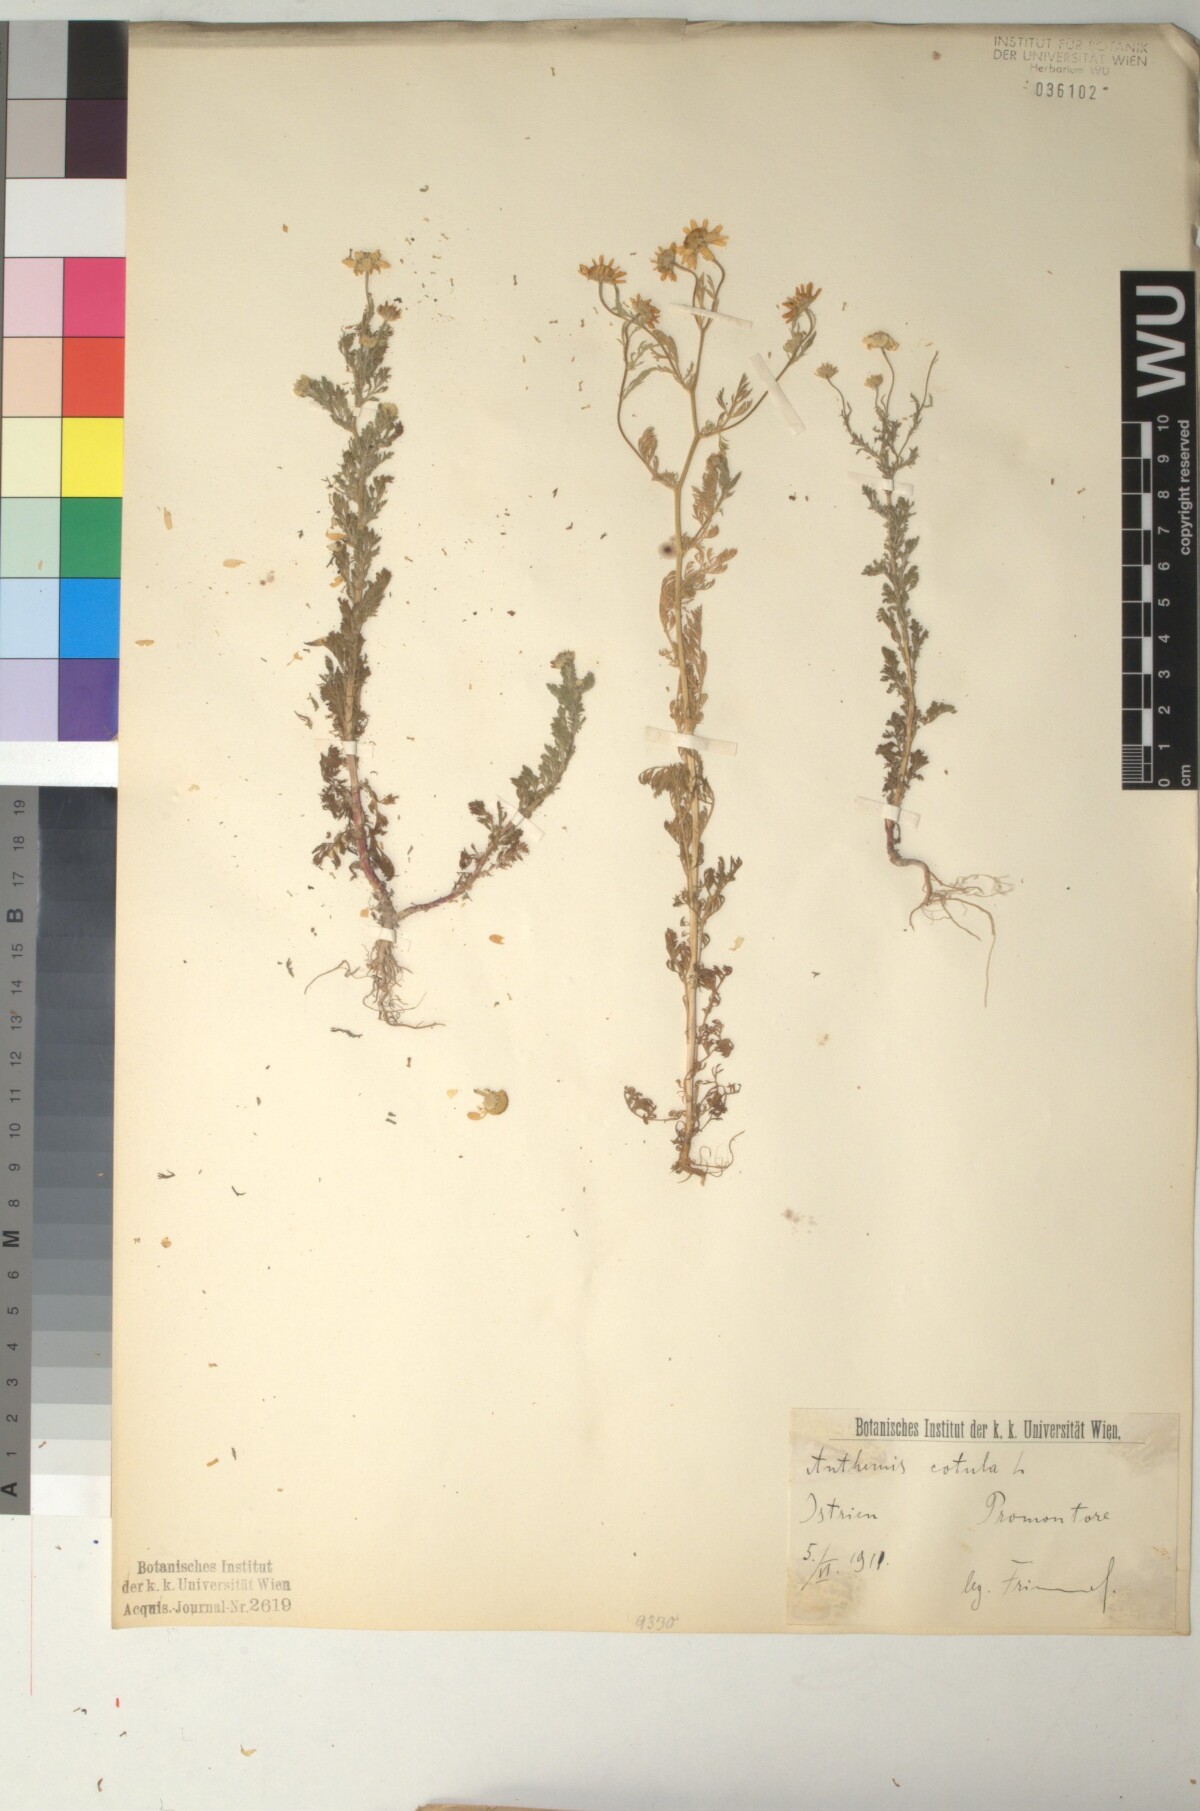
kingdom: Plantae
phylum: Tracheophyta
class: Magnoliopsida
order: Asterales
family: Asteraceae
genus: Anthemis
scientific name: Anthemis cotula
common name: Stinking chamomile
